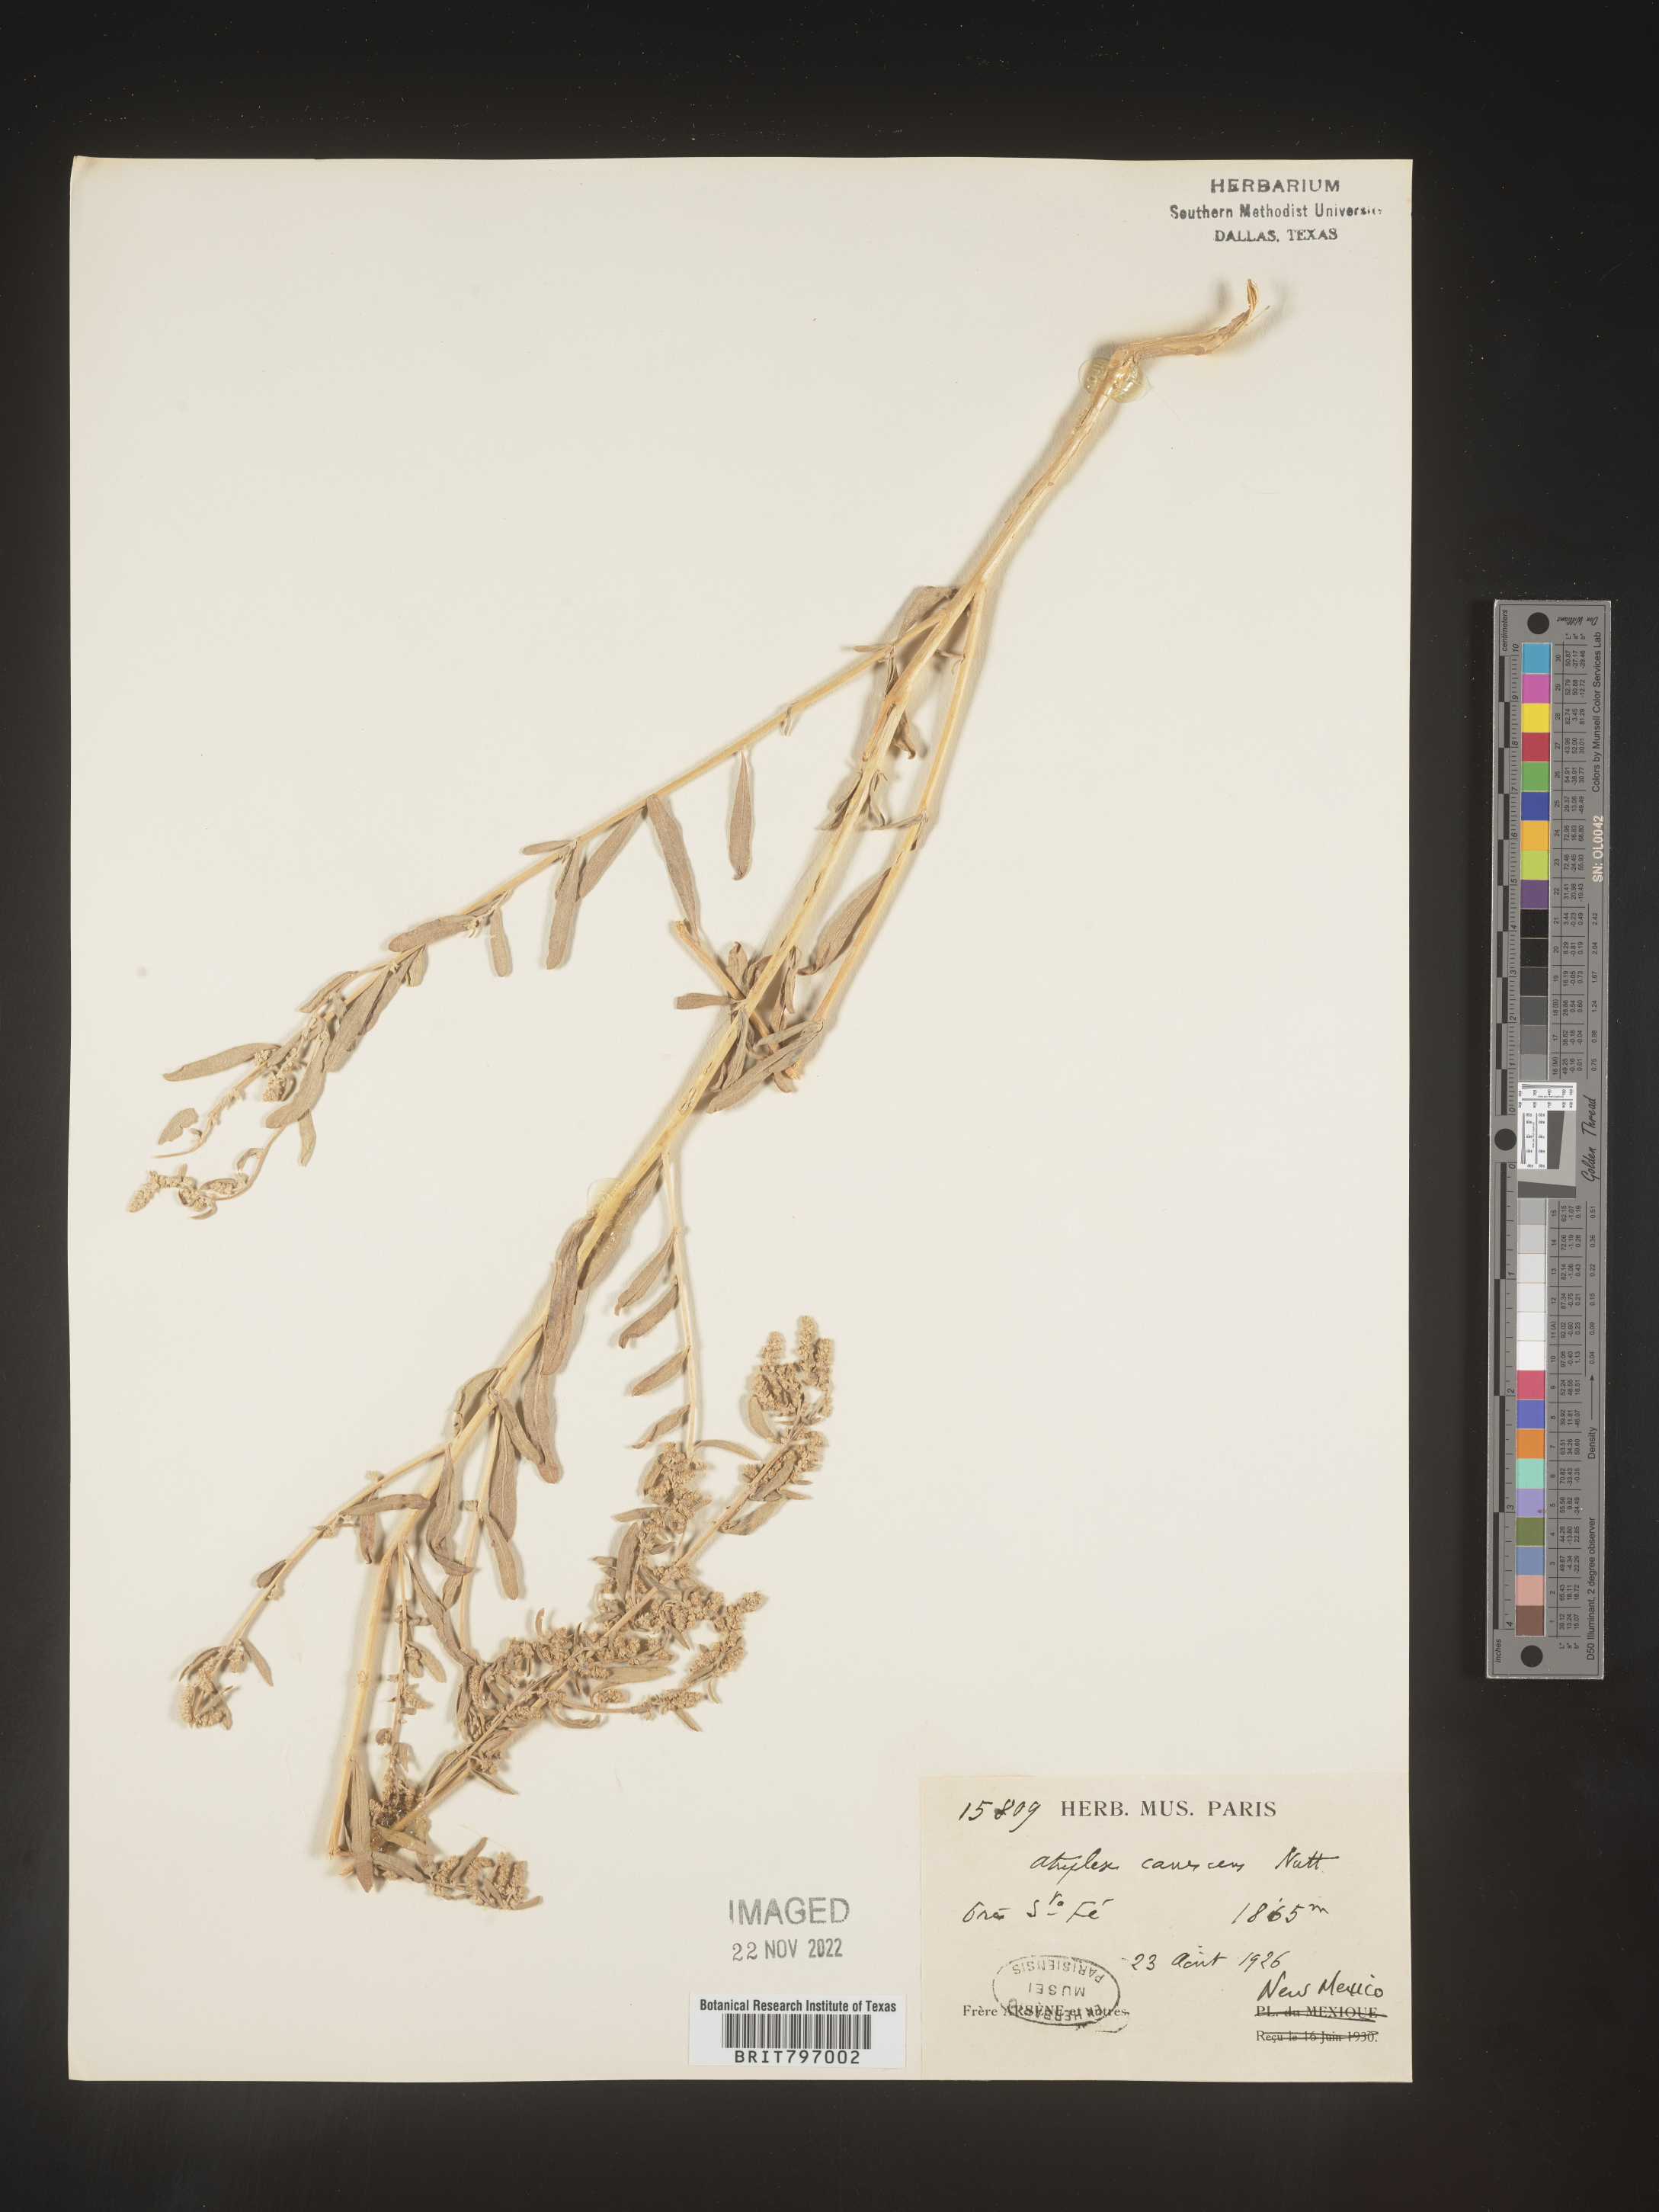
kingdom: Plantae
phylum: Tracheophyta
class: Magnoliopsida
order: Caryophyllales
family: Amaranthaceae
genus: Atriplex
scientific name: Atriplex canescens
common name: Four-wing saltbush
